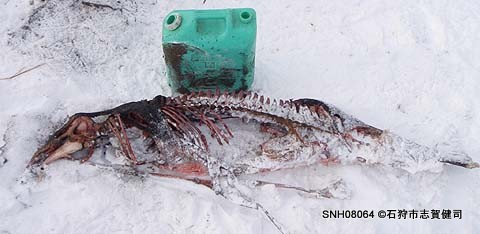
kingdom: Animalia
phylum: Chordata
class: Mammalia
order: Cetacea
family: Phocoenidae
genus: Phocoena
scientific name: Phocoena phocoena
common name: Harbour porpoise
